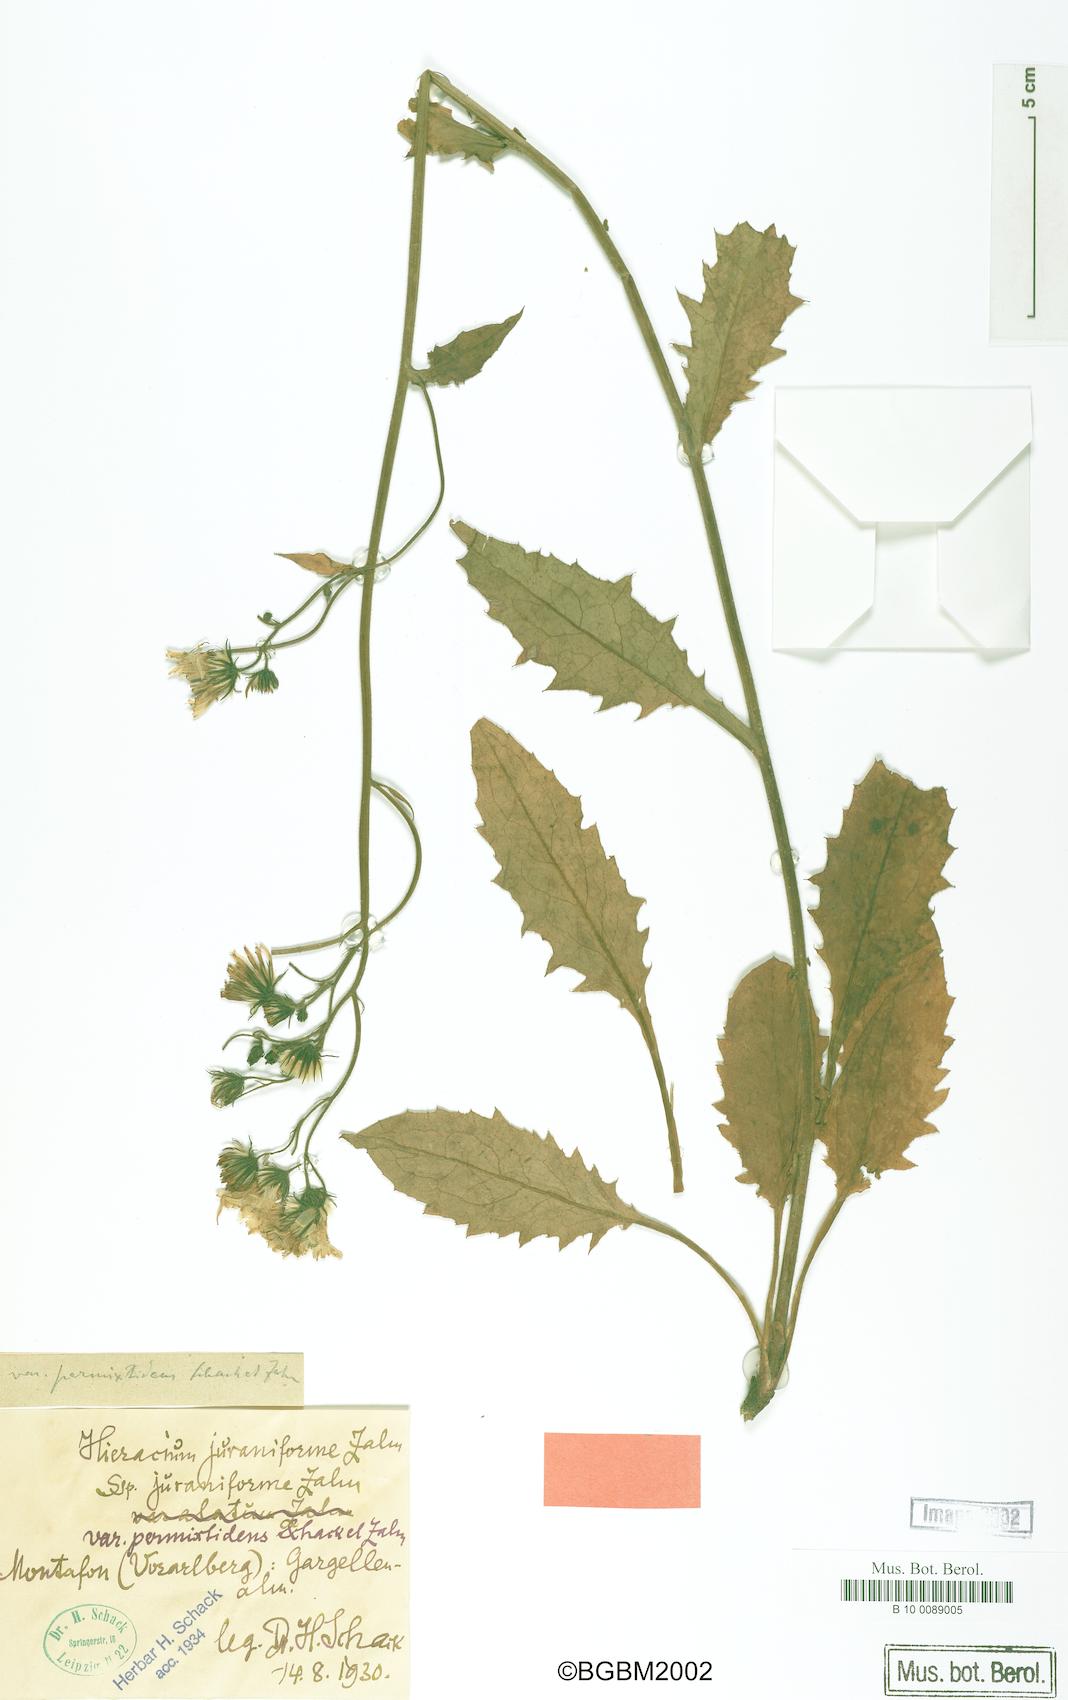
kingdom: Plantae
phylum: Tracheophyta
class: Magnoliopsida
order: Asterales
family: Asteraceae
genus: Hieracium
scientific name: Hieracium dermophyllum
